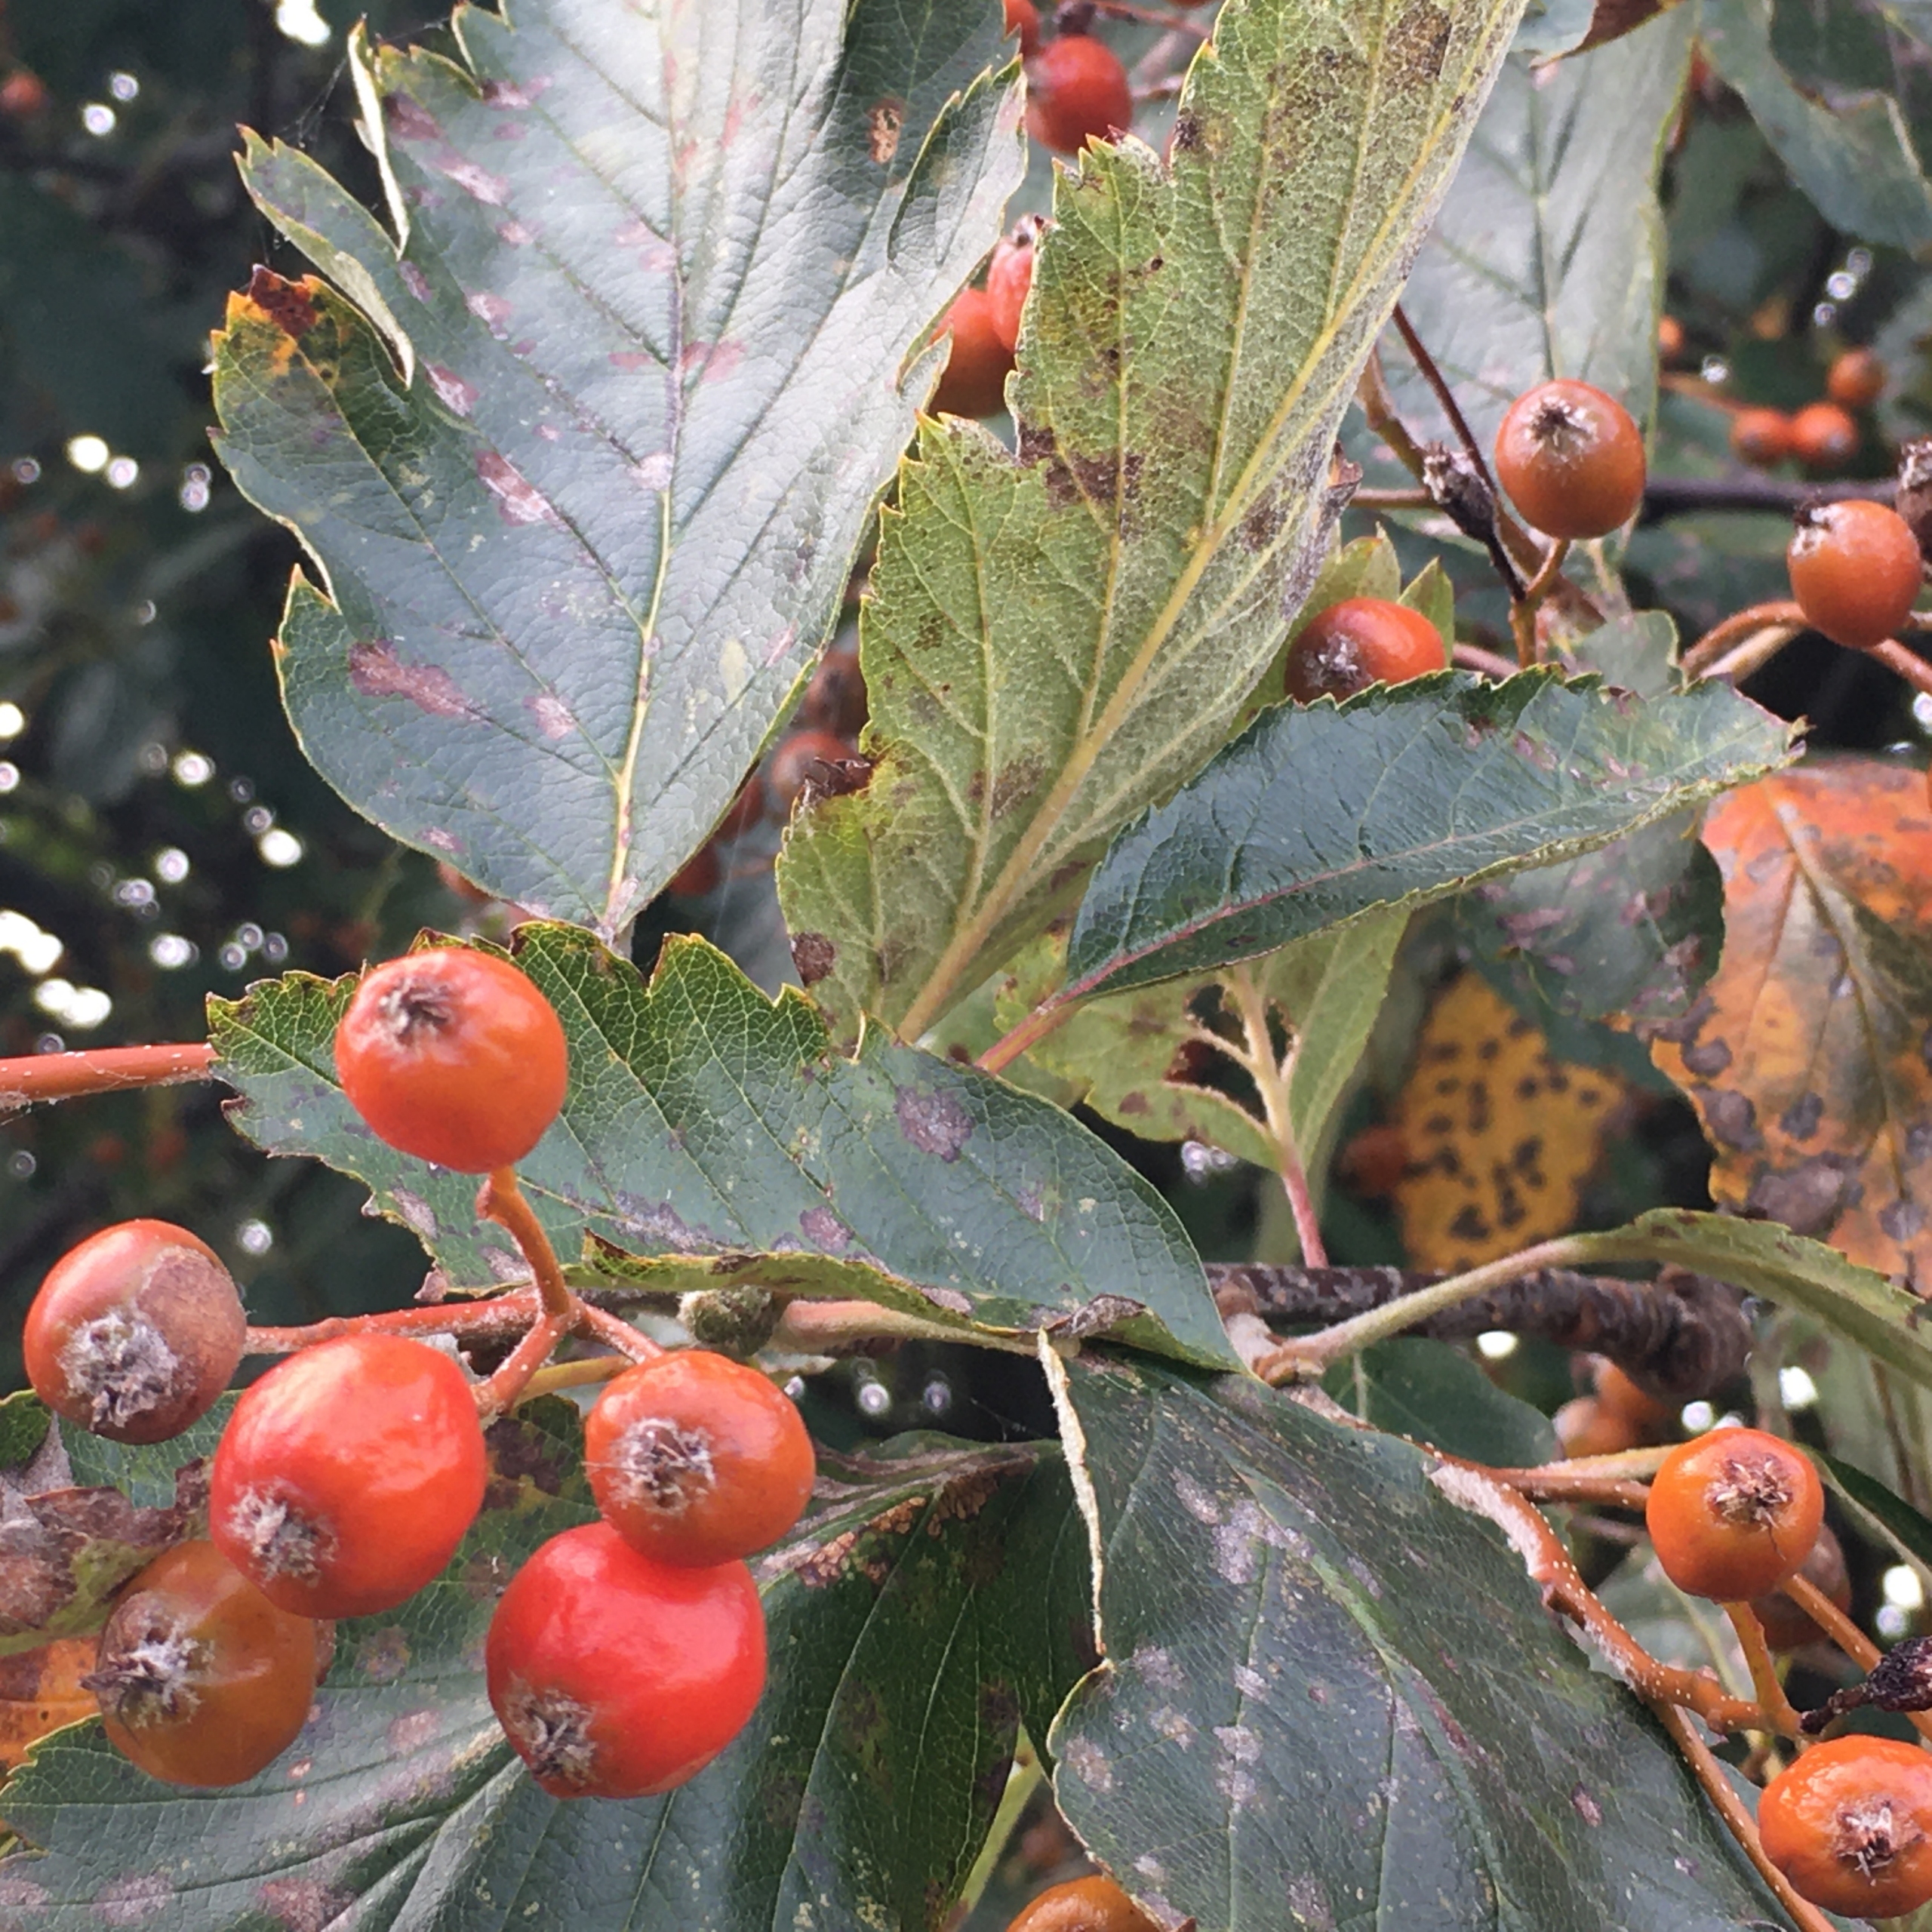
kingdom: Plantae
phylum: Tracheophyta
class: Magnoliopsida
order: Rosales
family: Rosaceae
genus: Scandosorbus
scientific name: Scandosorbus intermedia
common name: Selje-røn
